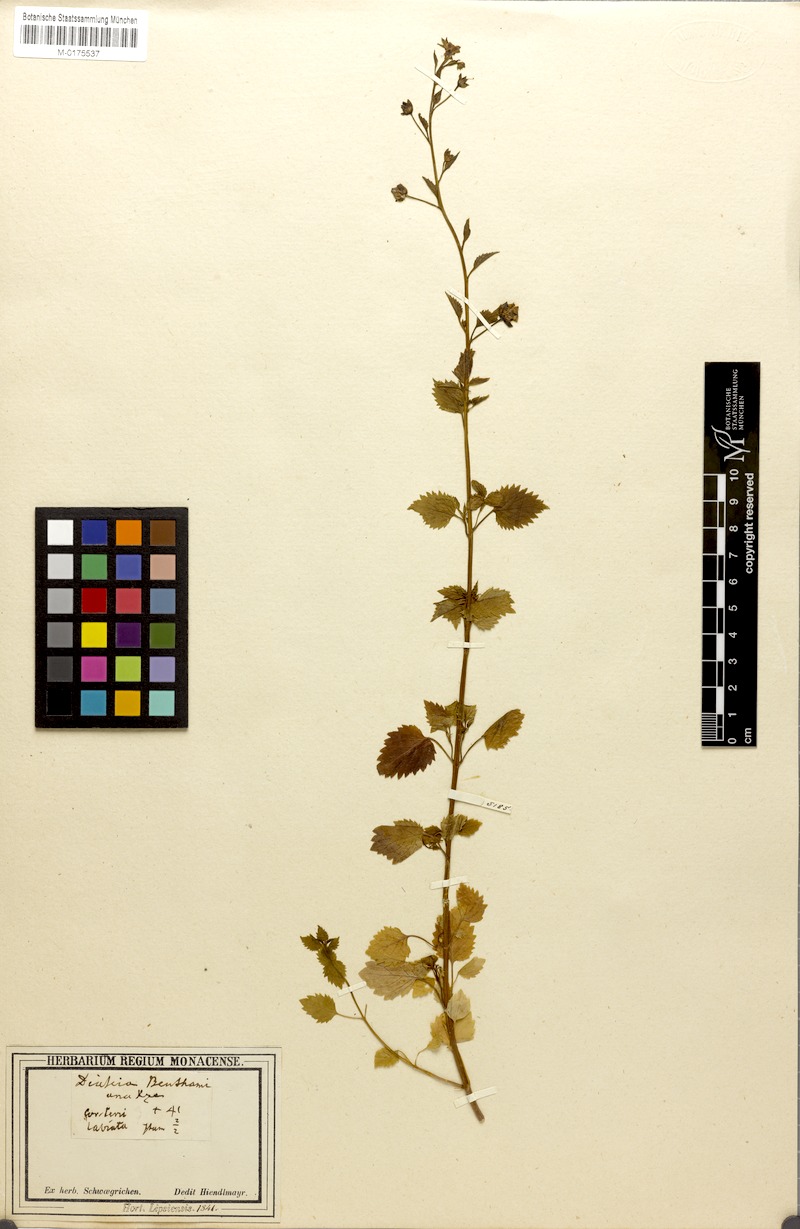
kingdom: Plantae
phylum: Tracheophyta
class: Magnoliopsida
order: Lamiales
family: Scrophulariaceae
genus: Diascia
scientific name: Diascia
